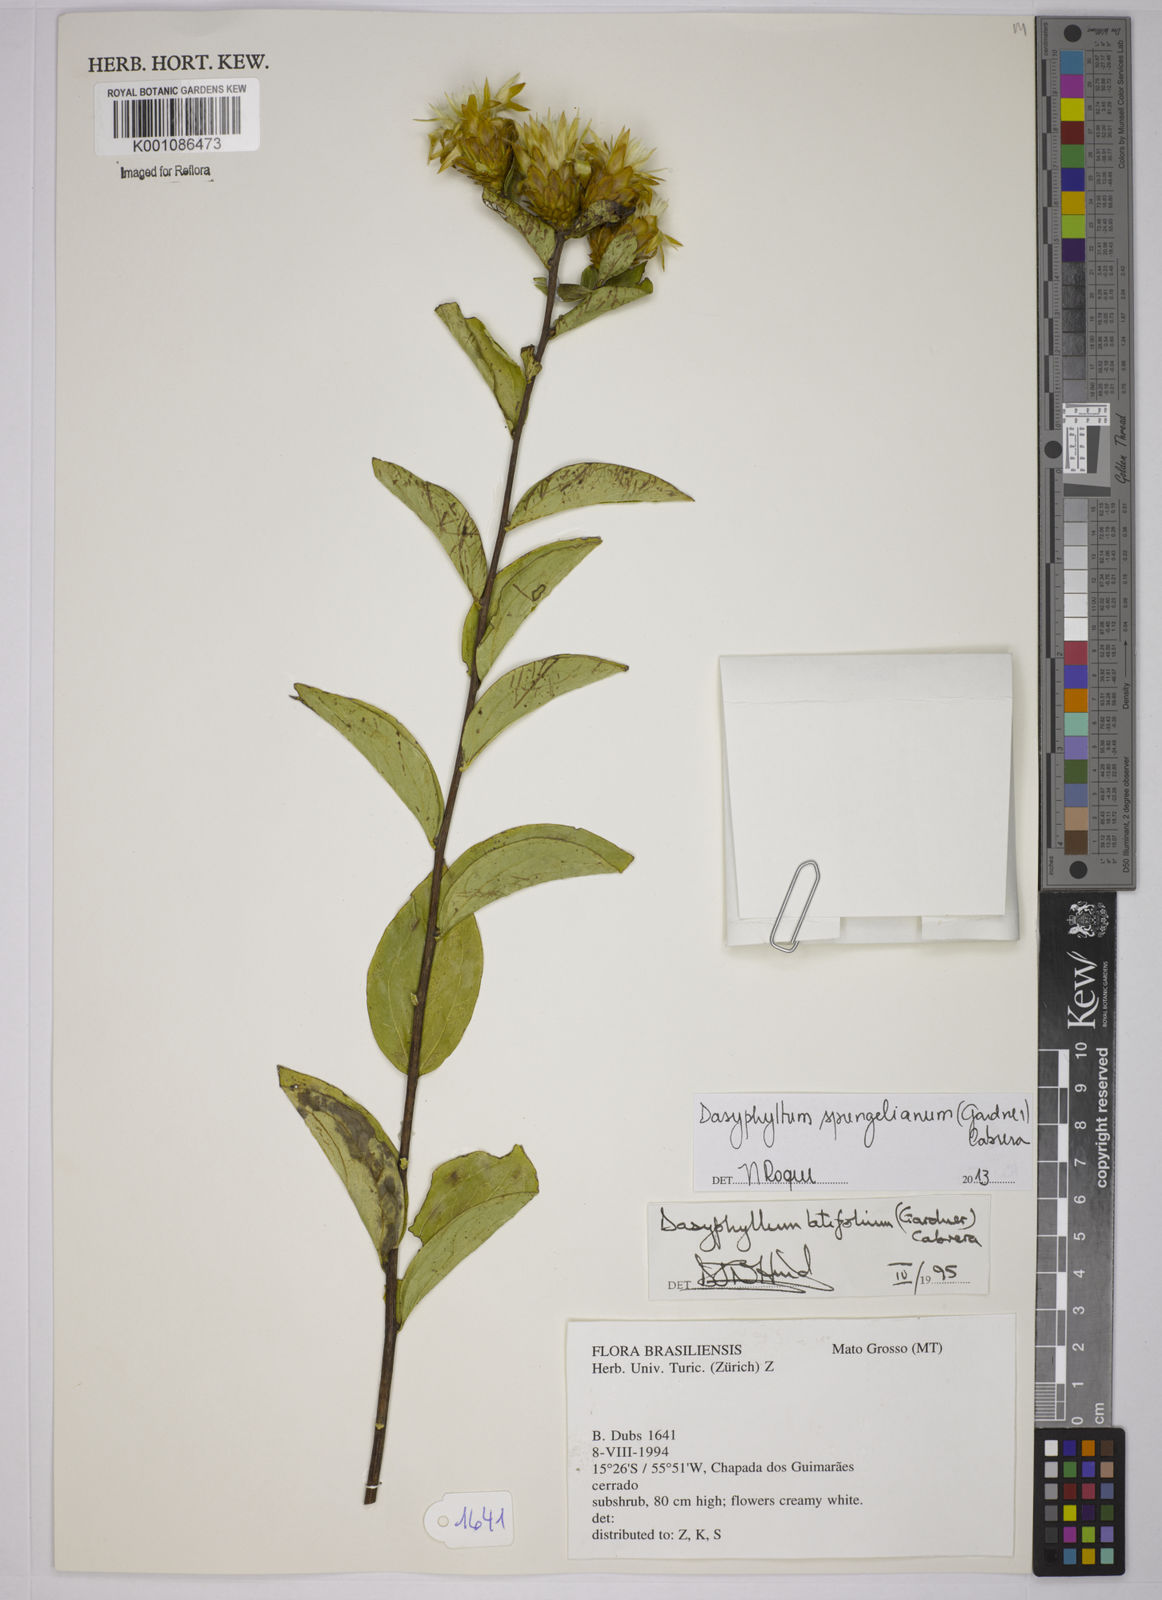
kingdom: Plantae
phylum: Tracheophyta
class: Magnoliopsida
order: Asterales
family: Asteraceae
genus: Dasyphyllum
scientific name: Dasyphyllum sprengelianum
